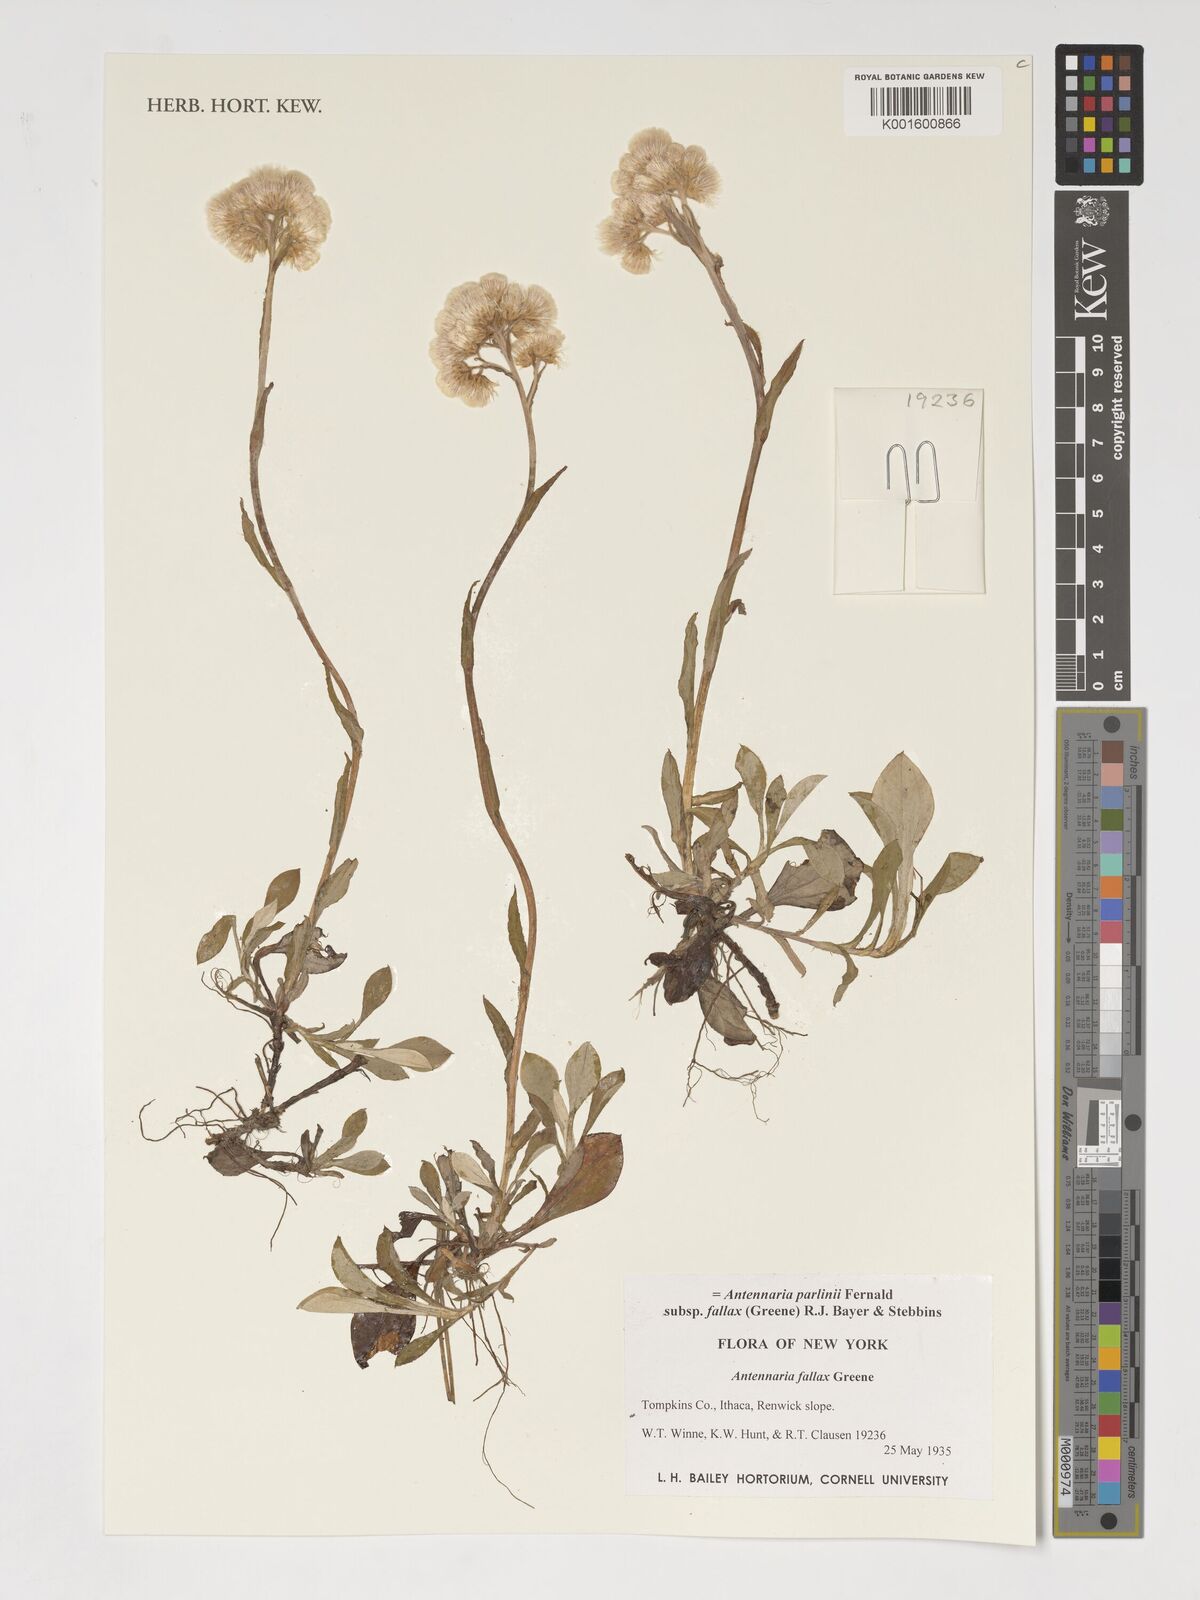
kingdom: Plantae
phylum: Tracheophyta
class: Magnoliopsida
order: Asterales
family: Asteraceae
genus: Antennaria
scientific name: Antennaria parlinii
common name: Parlin's pussytoes
